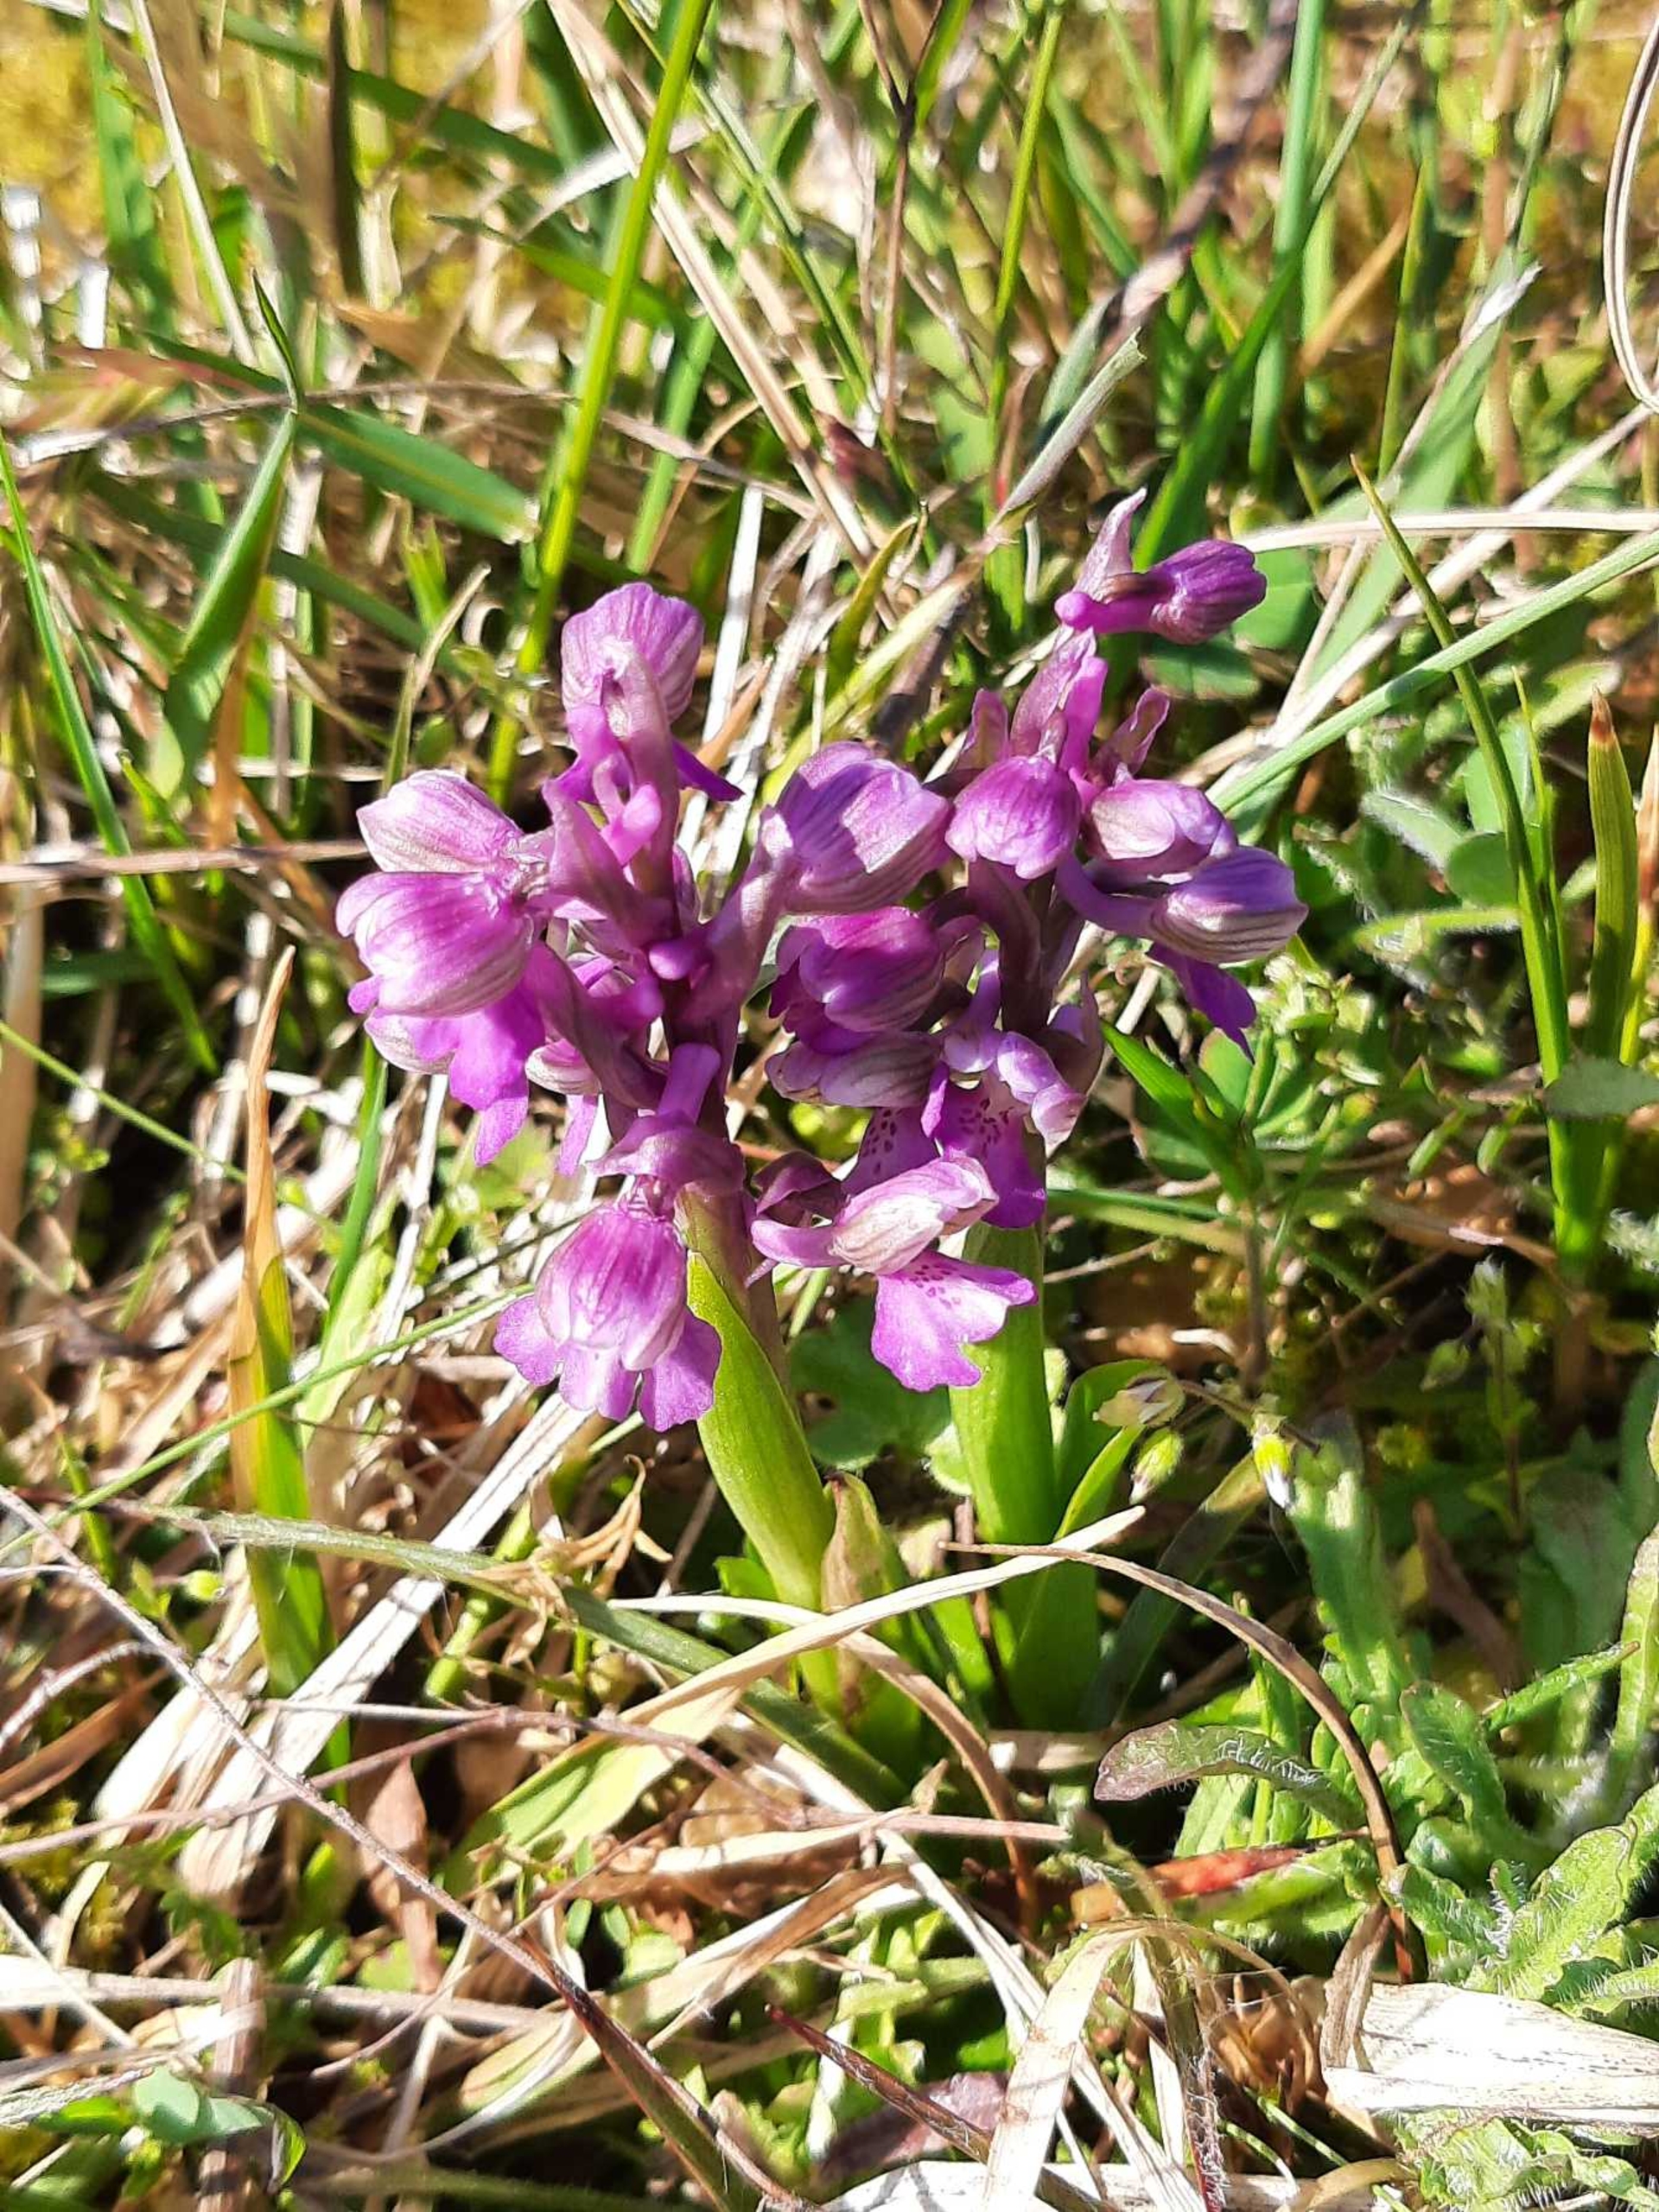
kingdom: Plantae
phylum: Tracheophyta
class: Liliopsida
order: Asparagales
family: Orchidaceae
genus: Anacamptis
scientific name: Anacamptis morio
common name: Salepgøgeurt
